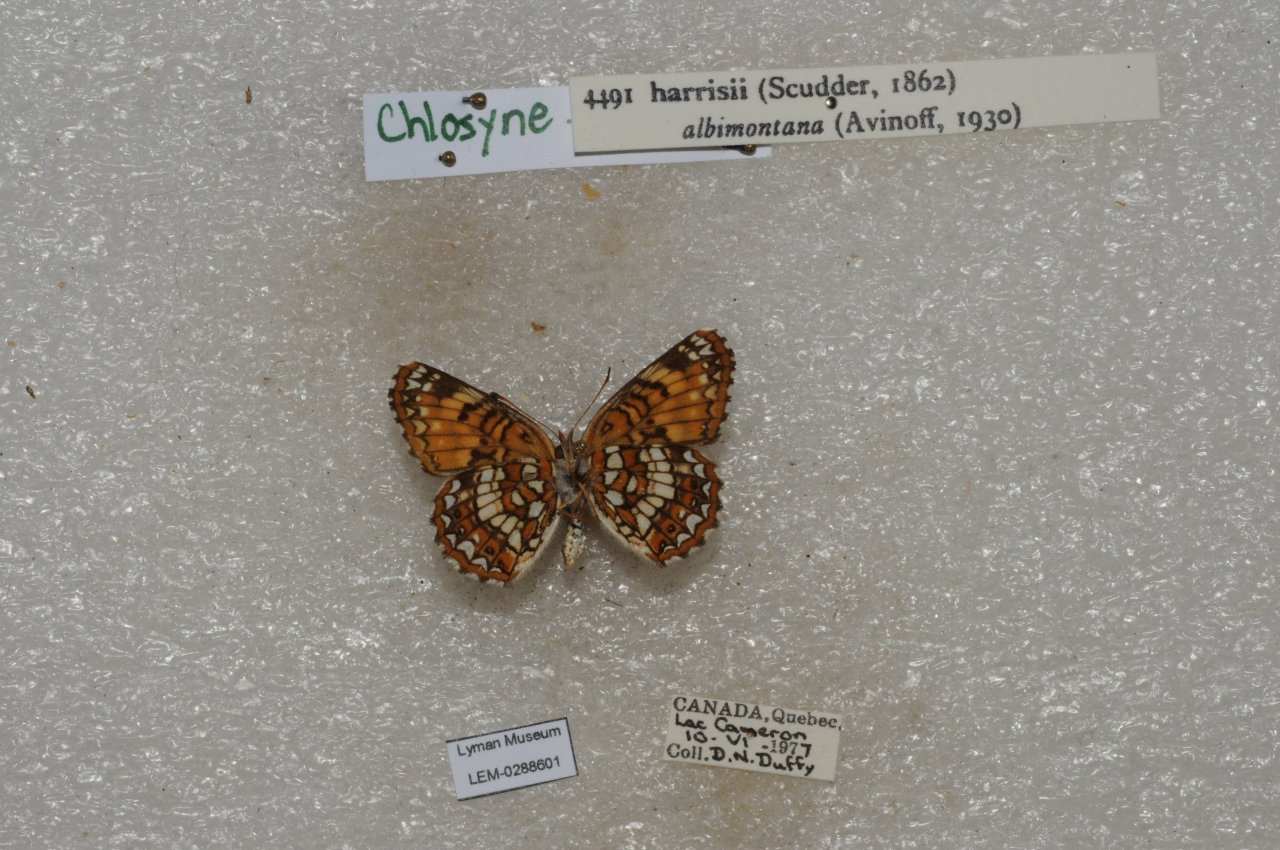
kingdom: Animalia
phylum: Arthropoda
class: Insecta
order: Lepidoptera
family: Nymphalidae
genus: Chlosyne
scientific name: Chlosyne harrisii
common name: Harris's Checkerspot
